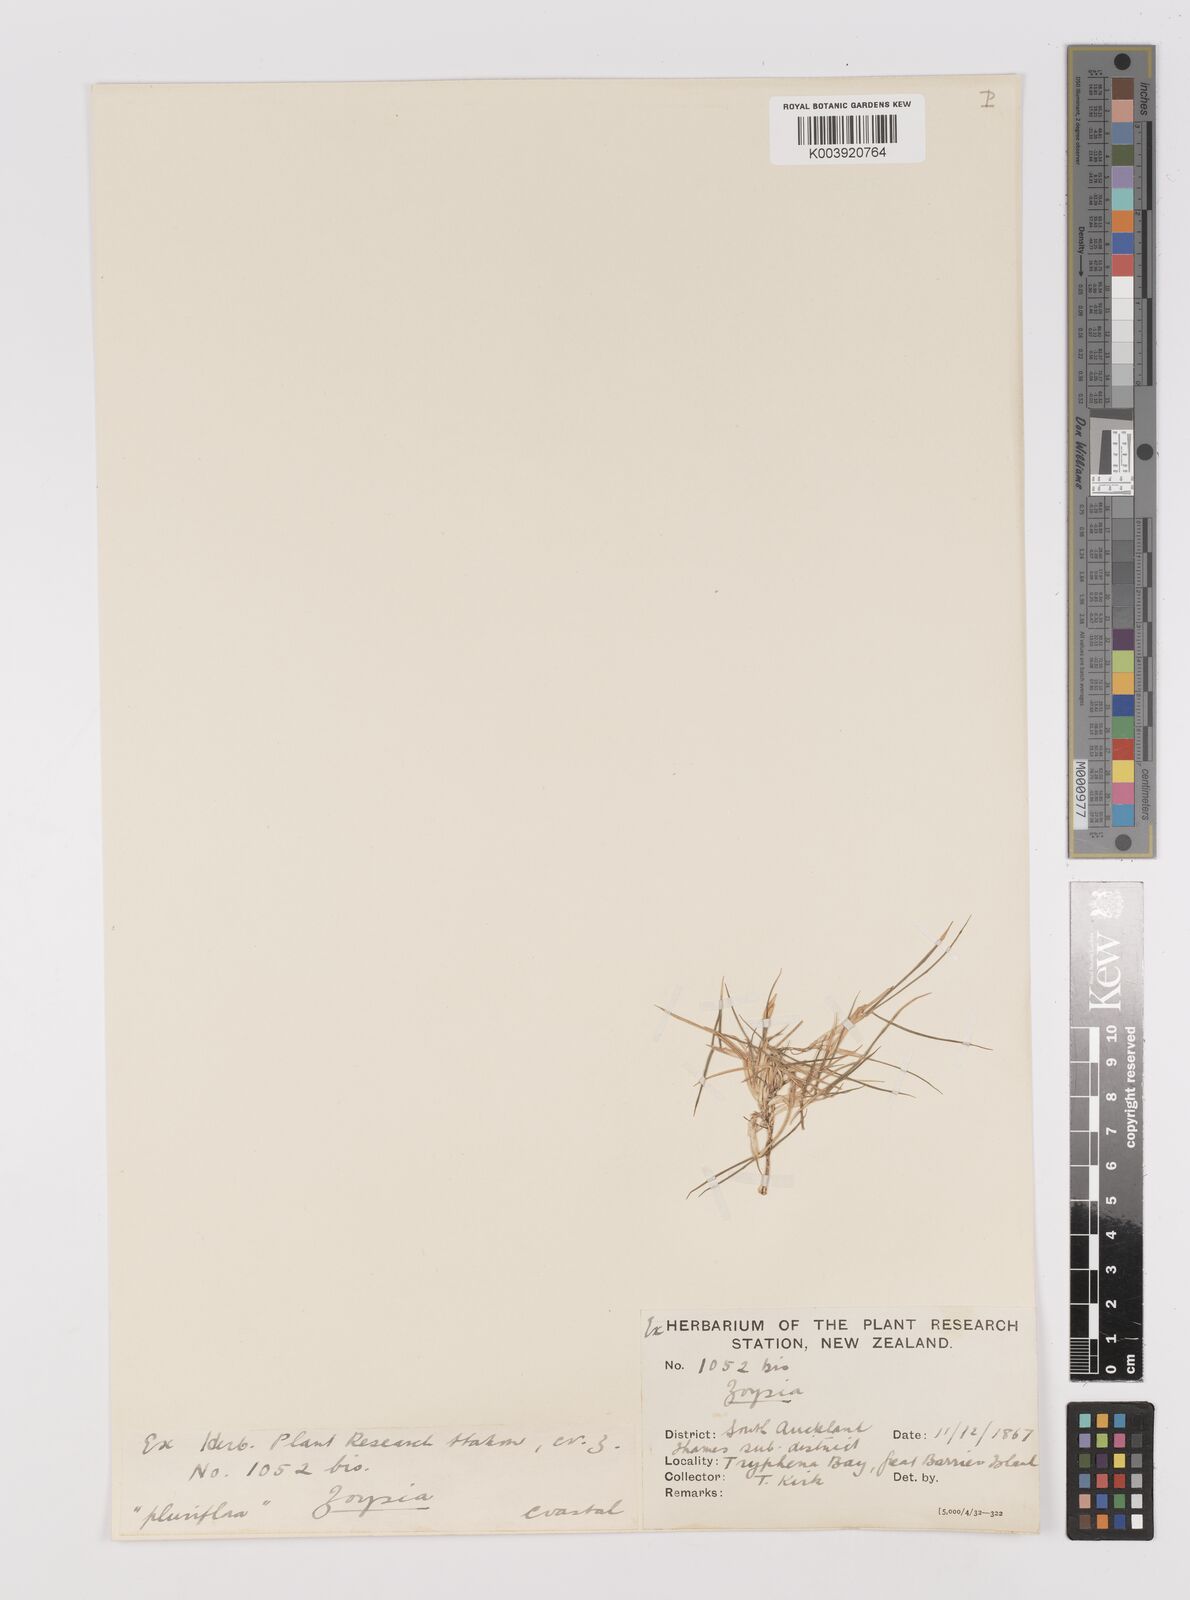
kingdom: Plantae
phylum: Tracheophyta
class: Liliopsida
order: Poales
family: Poaceae
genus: Zoysia
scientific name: Zoysia pauciflora
